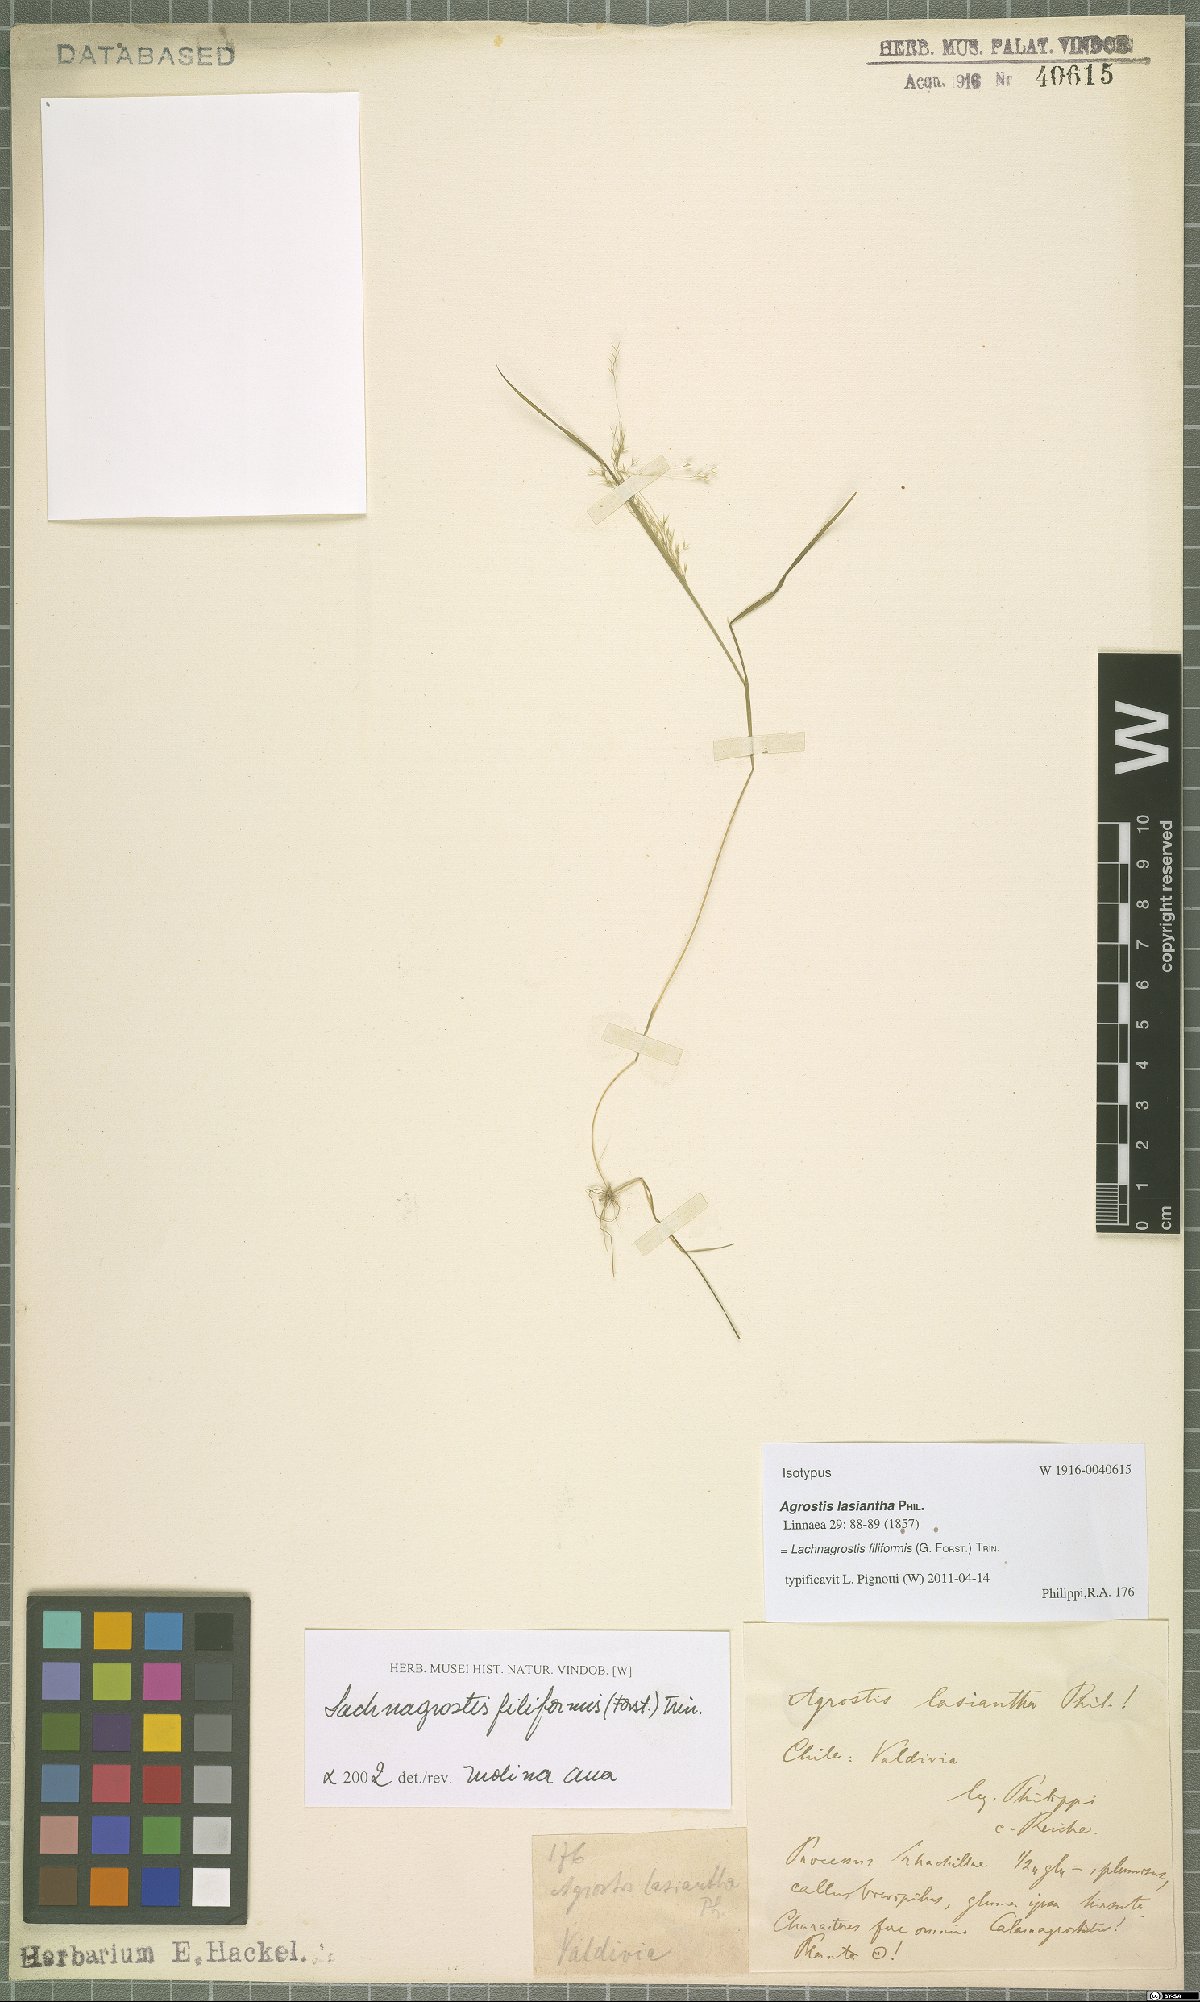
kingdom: Plantae
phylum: Tracheophyta
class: Liliopsida
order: Poales
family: Poaceae
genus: Lachnagrostis
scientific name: Lachnagrostis filiformis
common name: Bentgrass
